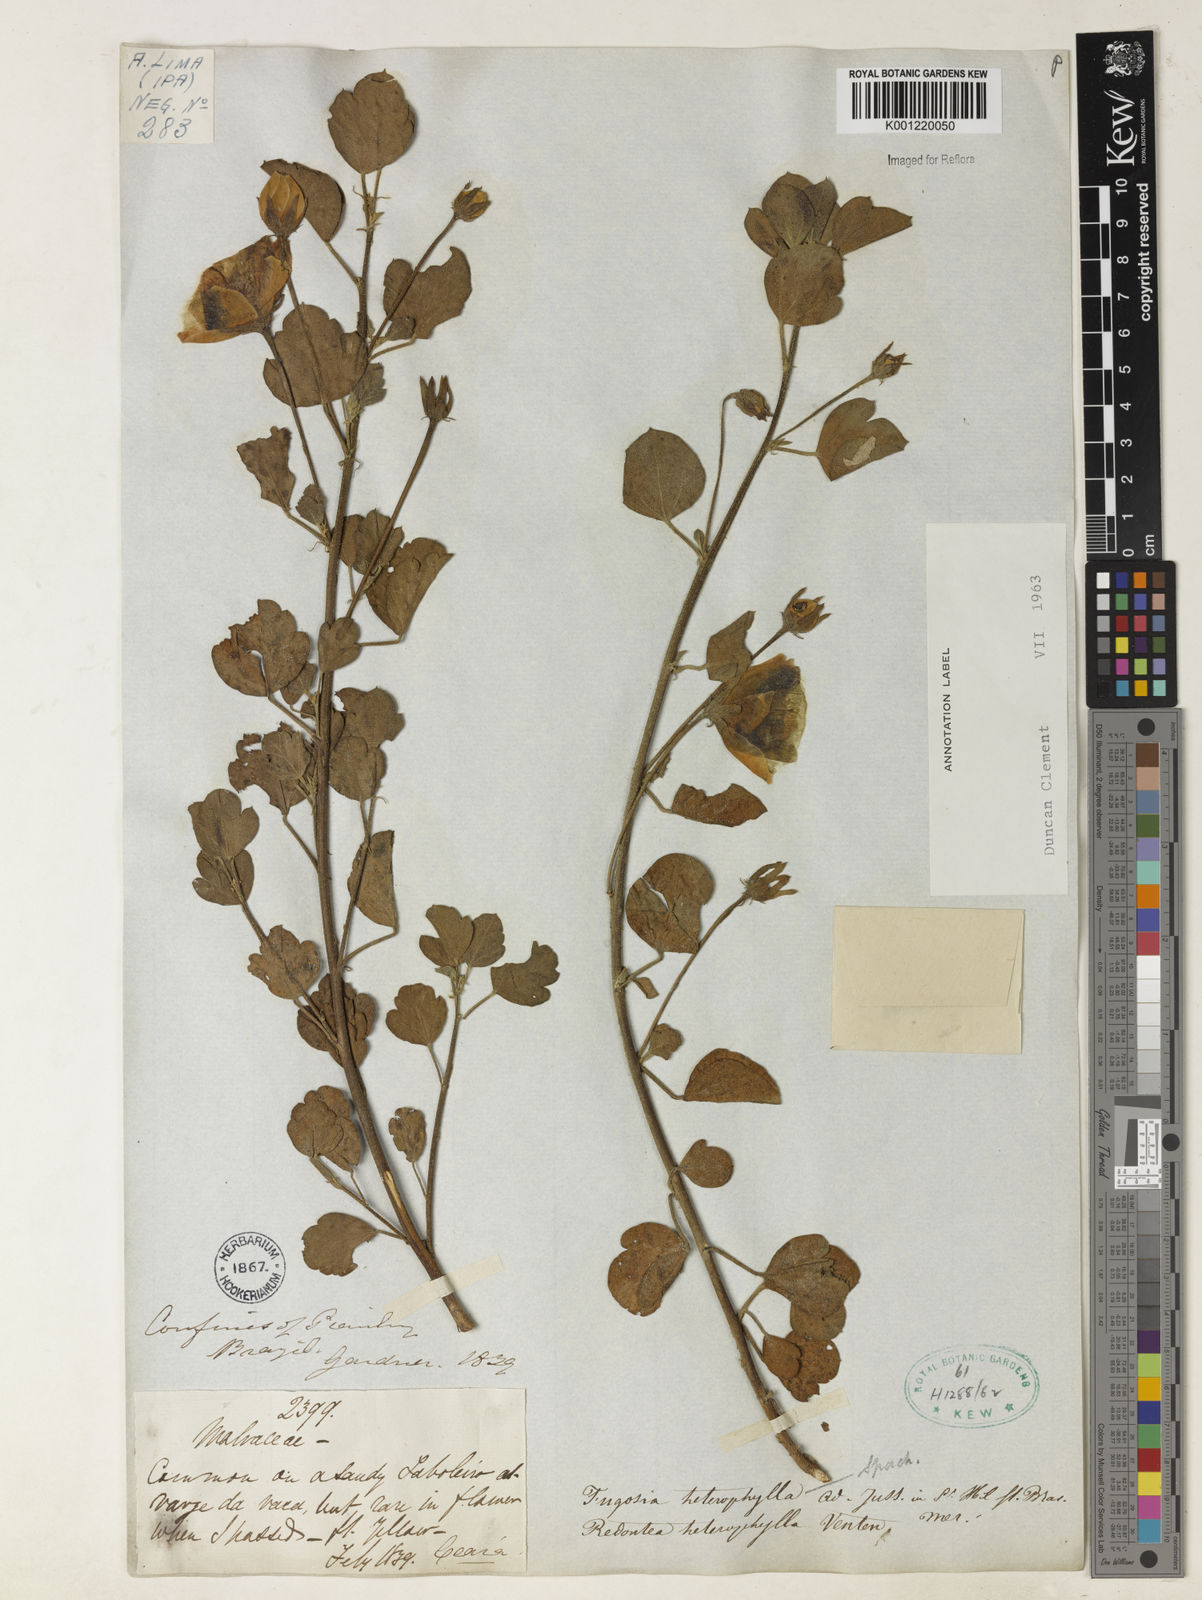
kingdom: Plantae
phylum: Tracheophyta
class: Magnoliopsida
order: Malvales
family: Malvaceae
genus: Cienfuegosia
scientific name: Cienfuegosia heterophylla
